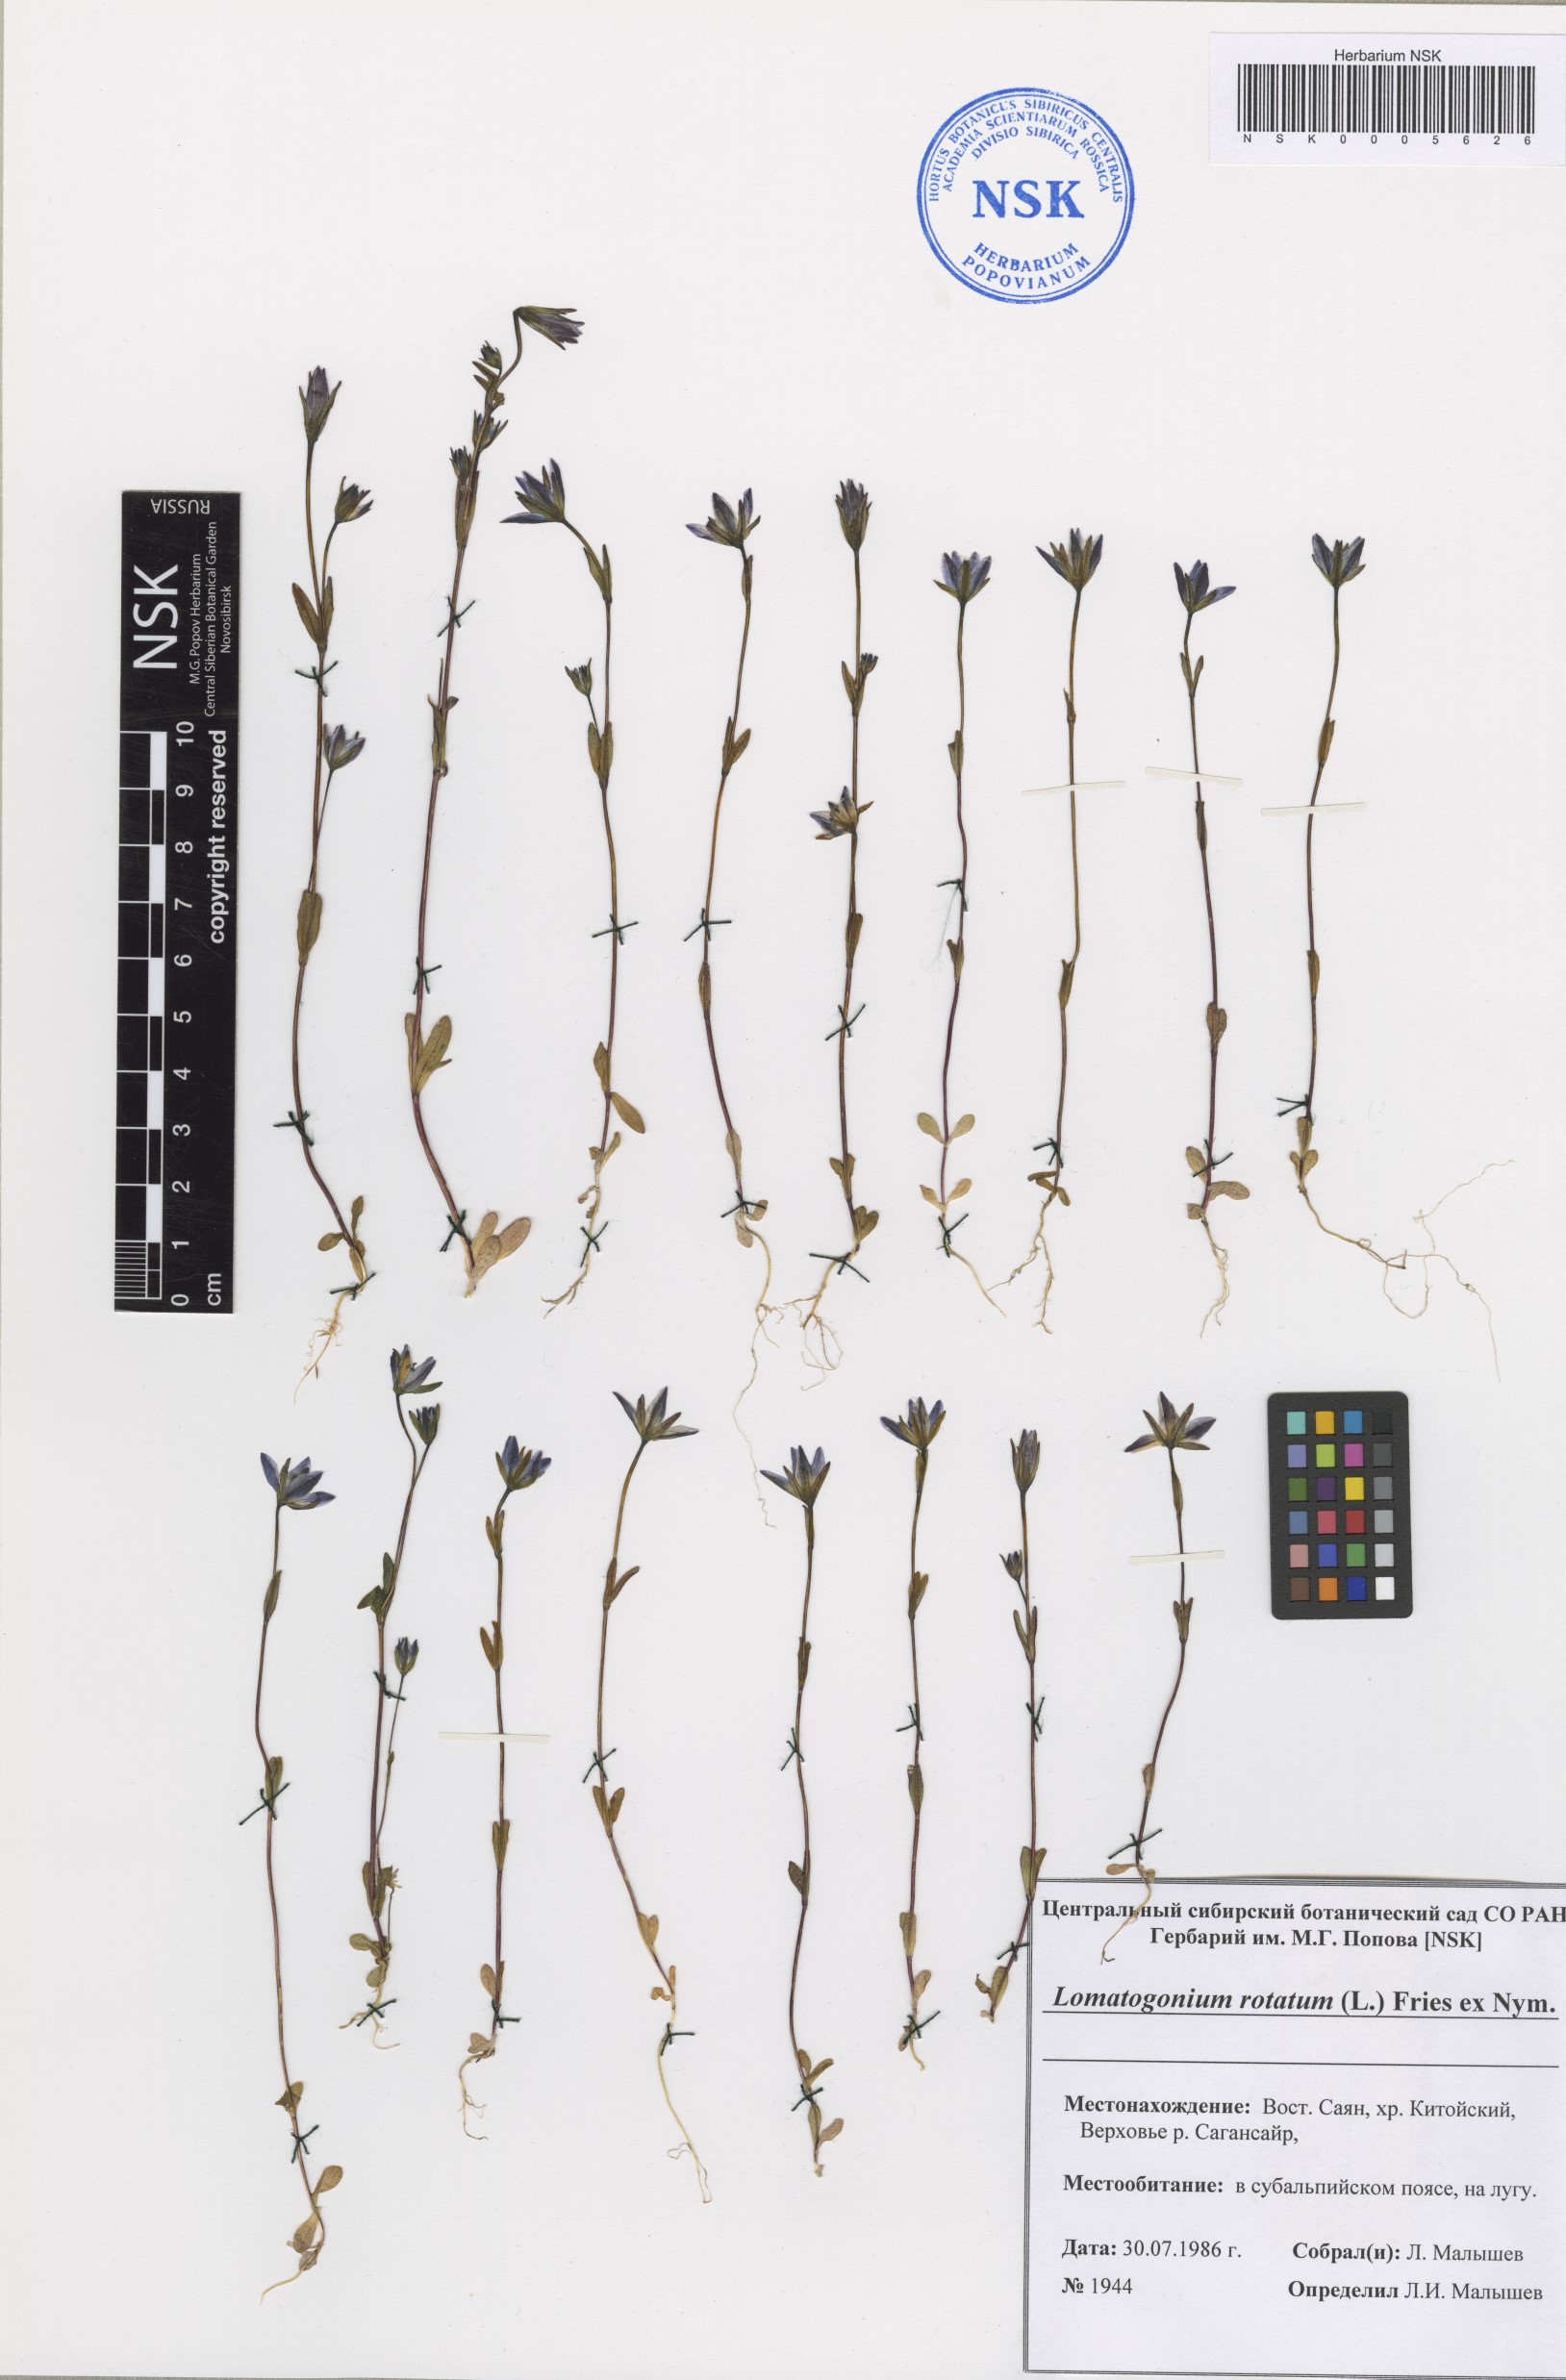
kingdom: Plantae
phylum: Tracheophyta
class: Magnoliopsida
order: Gentianales
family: Gentianaceae
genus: Lomatogonium
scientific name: Lomatogonium rotatum
